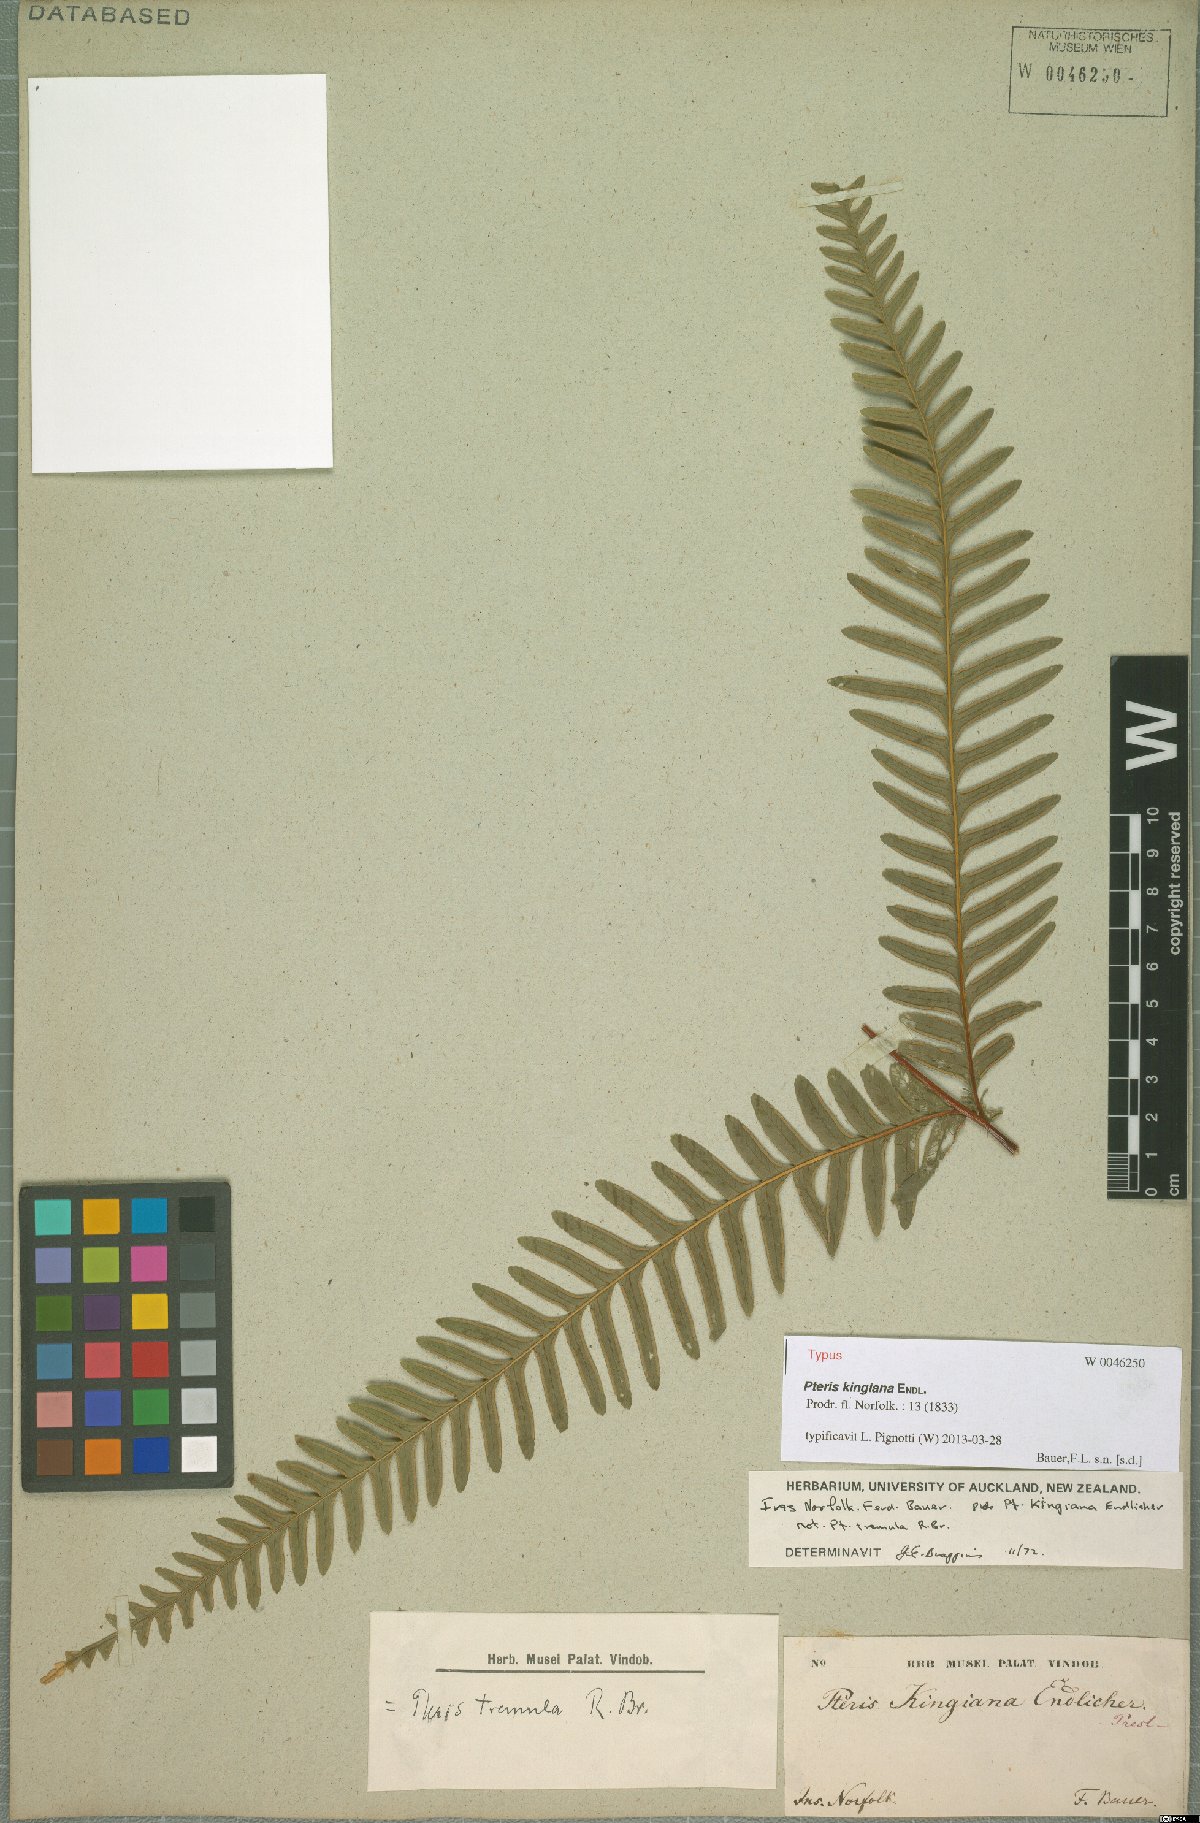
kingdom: Plantae
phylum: Tracheophyta
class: Polypodiopsida
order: Polypodiales
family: Pteridaceae
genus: Pteris
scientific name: Pteris kingiana
